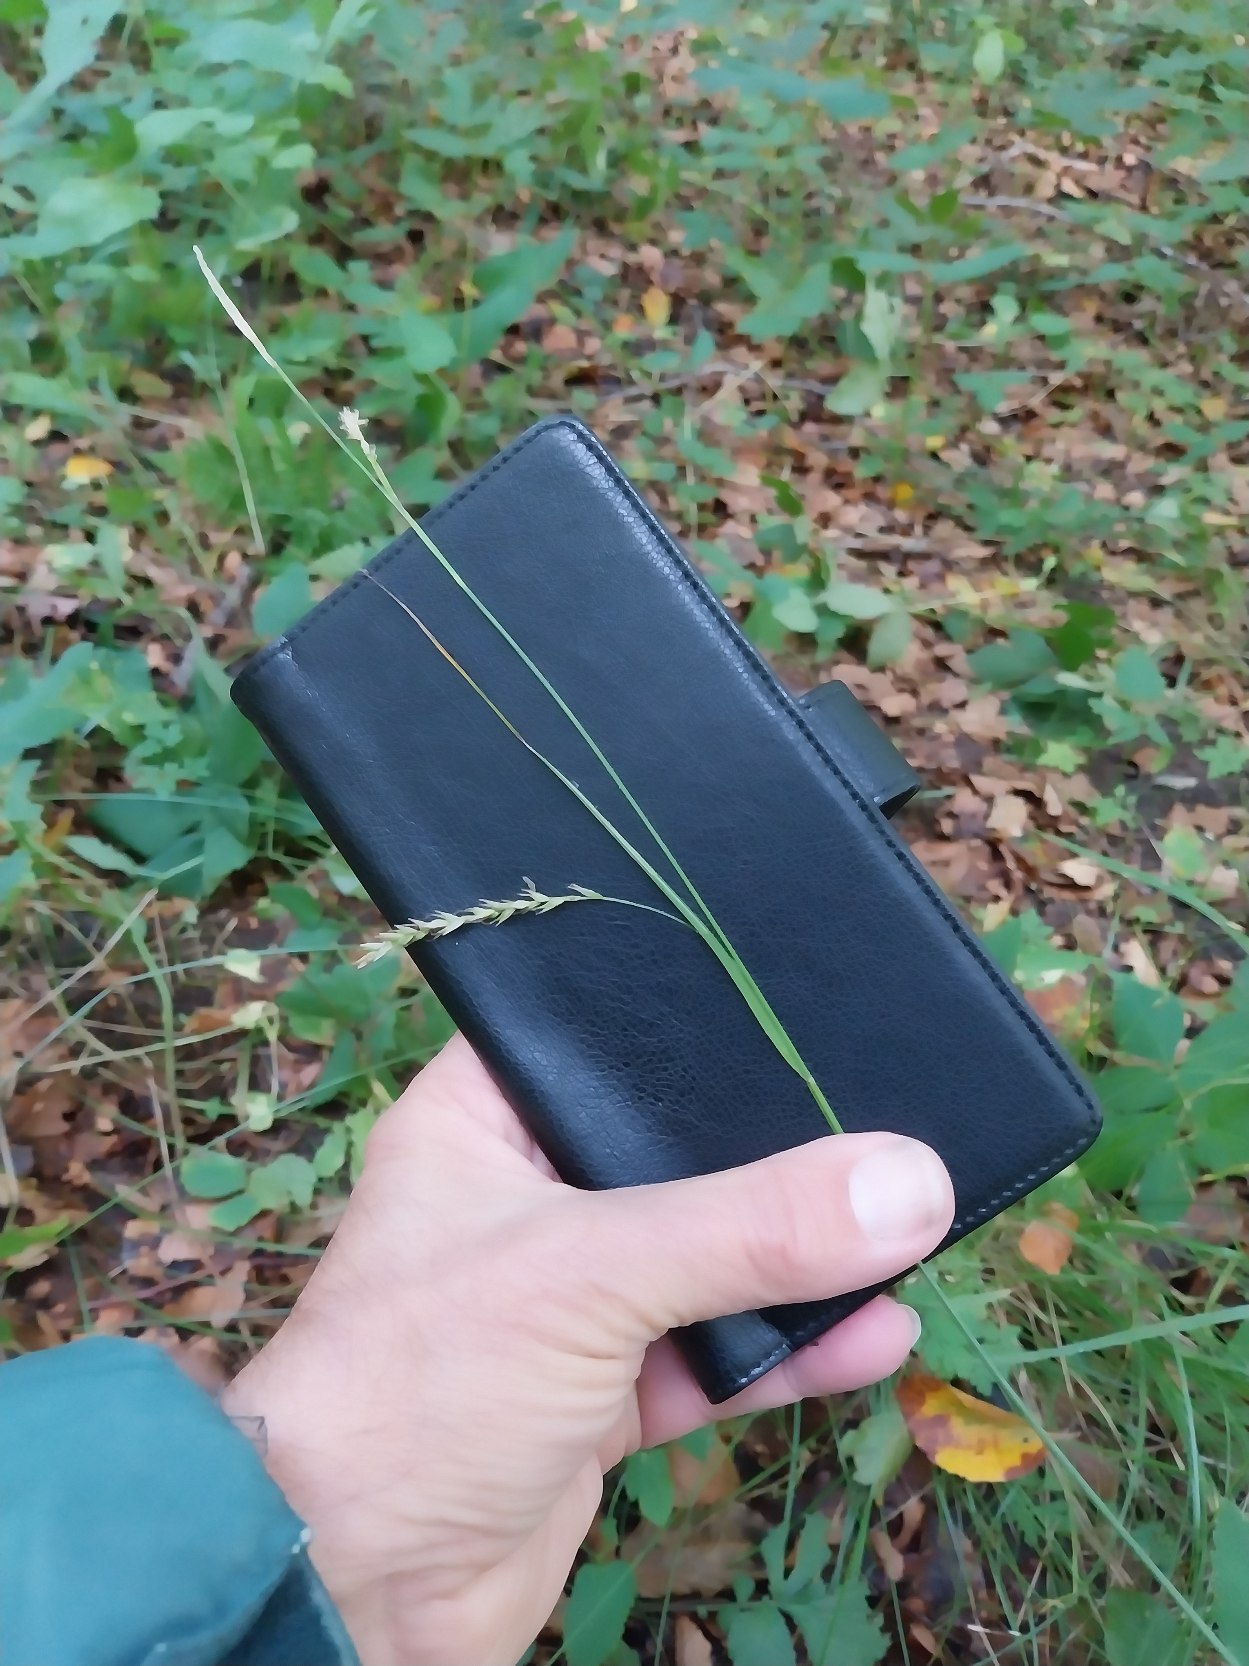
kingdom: Plantae
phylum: Tracheophyta
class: Liliopsida
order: Poales
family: Cyperaceae
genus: Carex
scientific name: Carex sylvatica
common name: Skov-star
